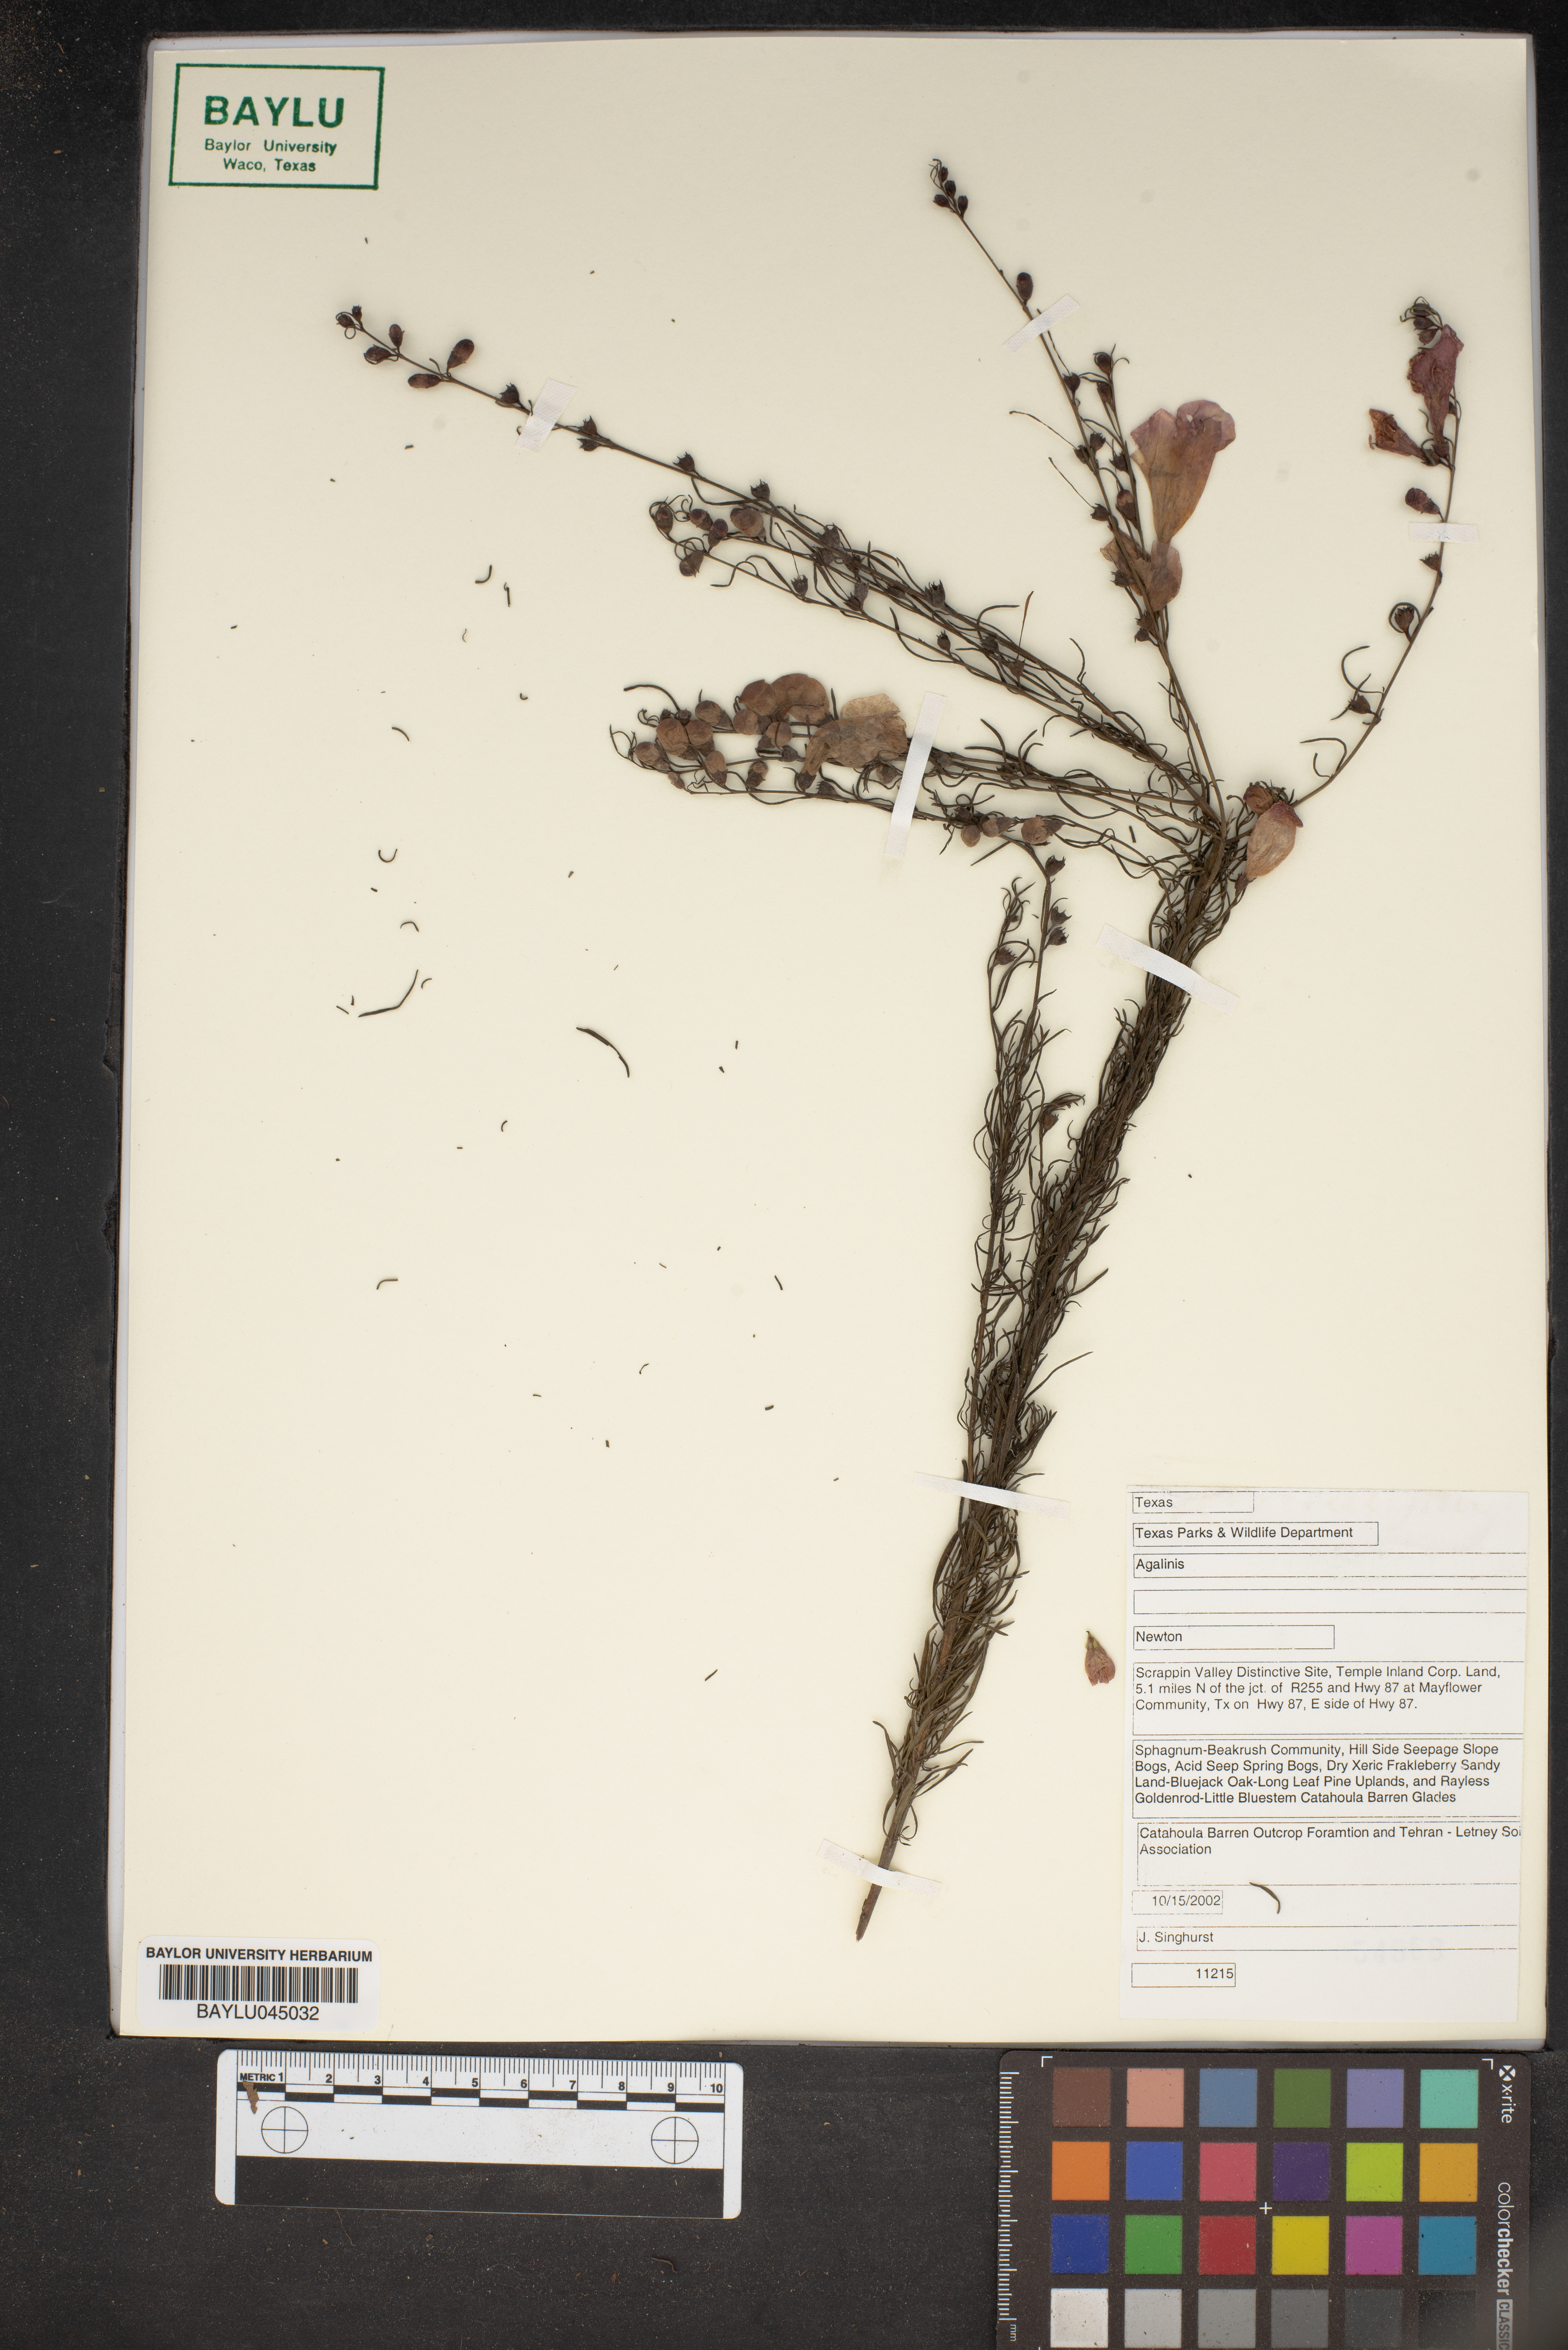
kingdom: Plantae
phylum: Tracheophyta
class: Magnoliopsida
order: Lamiales
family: Orobanchaceae
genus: Agalinis
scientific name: Agalinis
